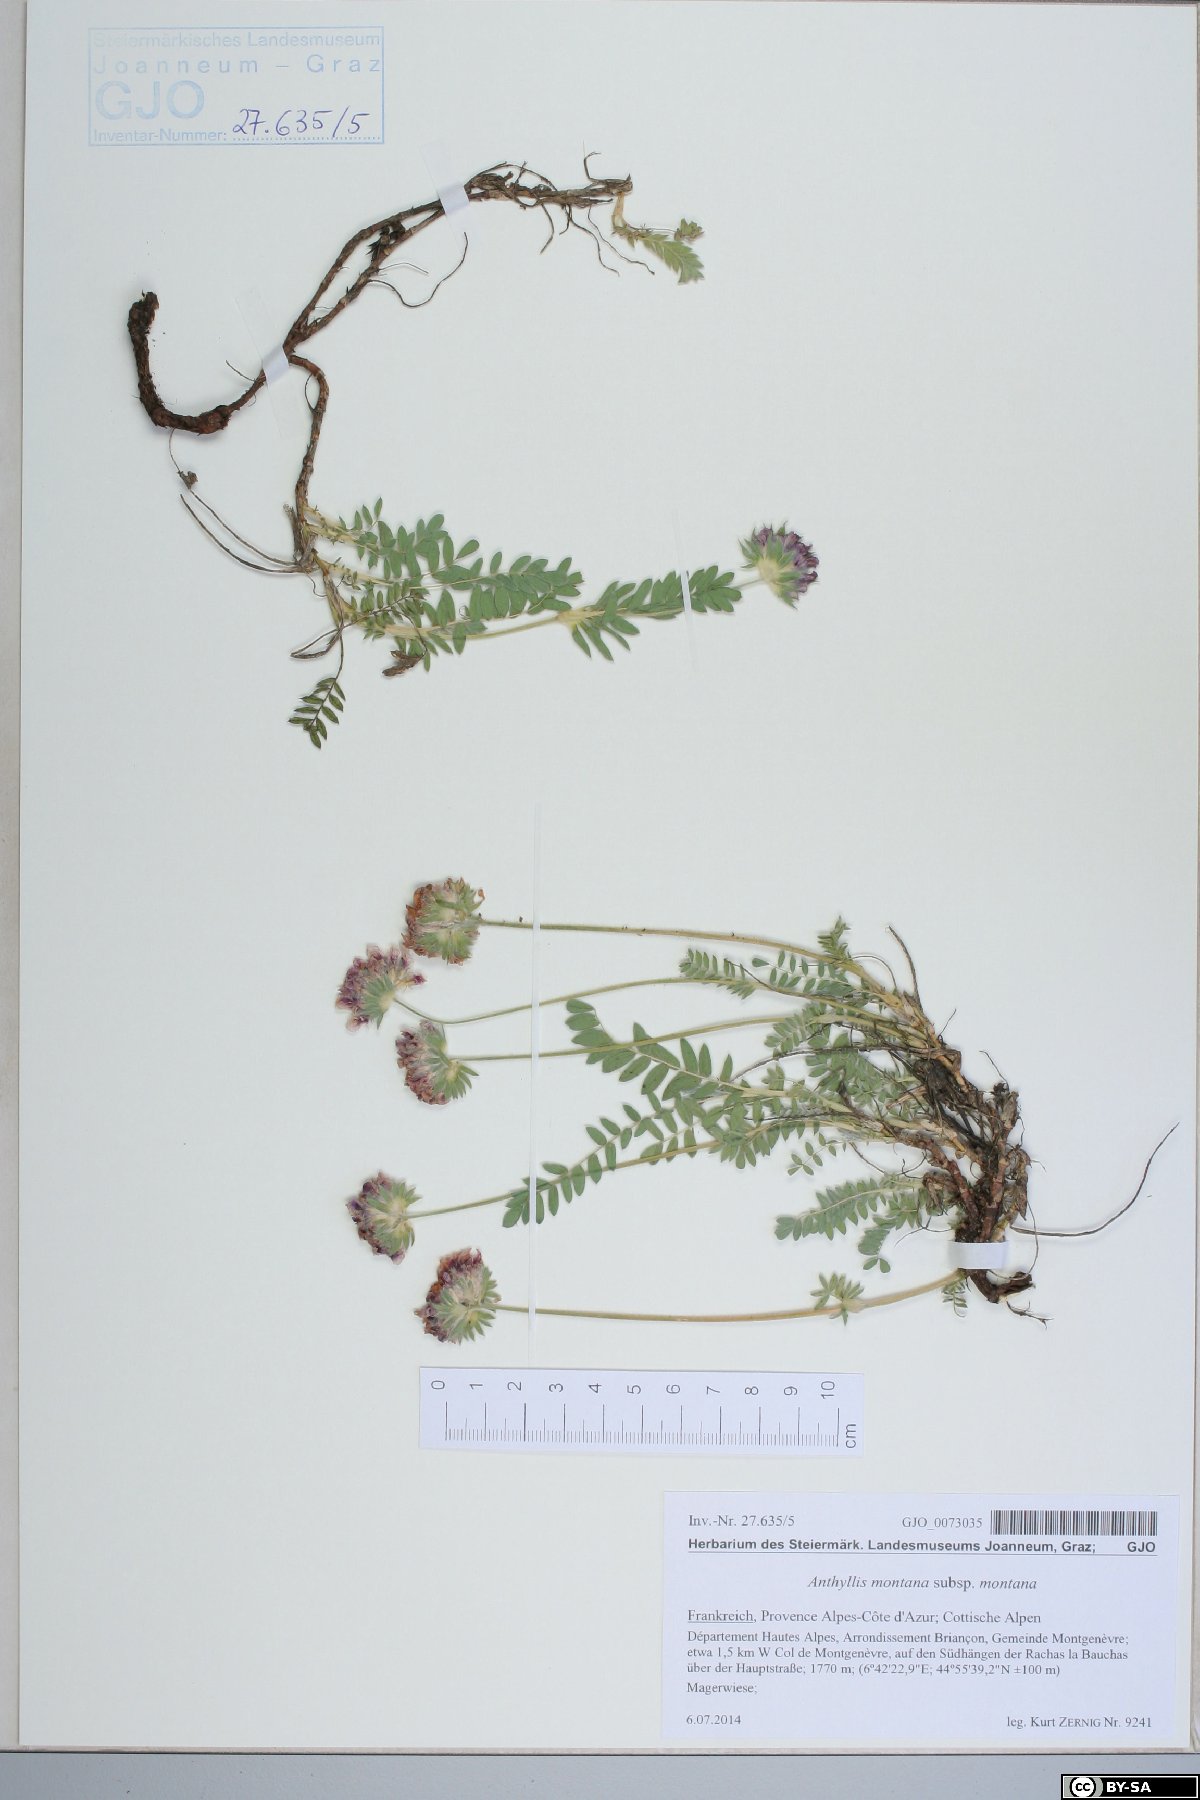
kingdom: Plantae
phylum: Tracheophyta
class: Magnoliopsida
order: Fabales
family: Fabaceae
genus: Anthyllis
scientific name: Anthyllis montana
